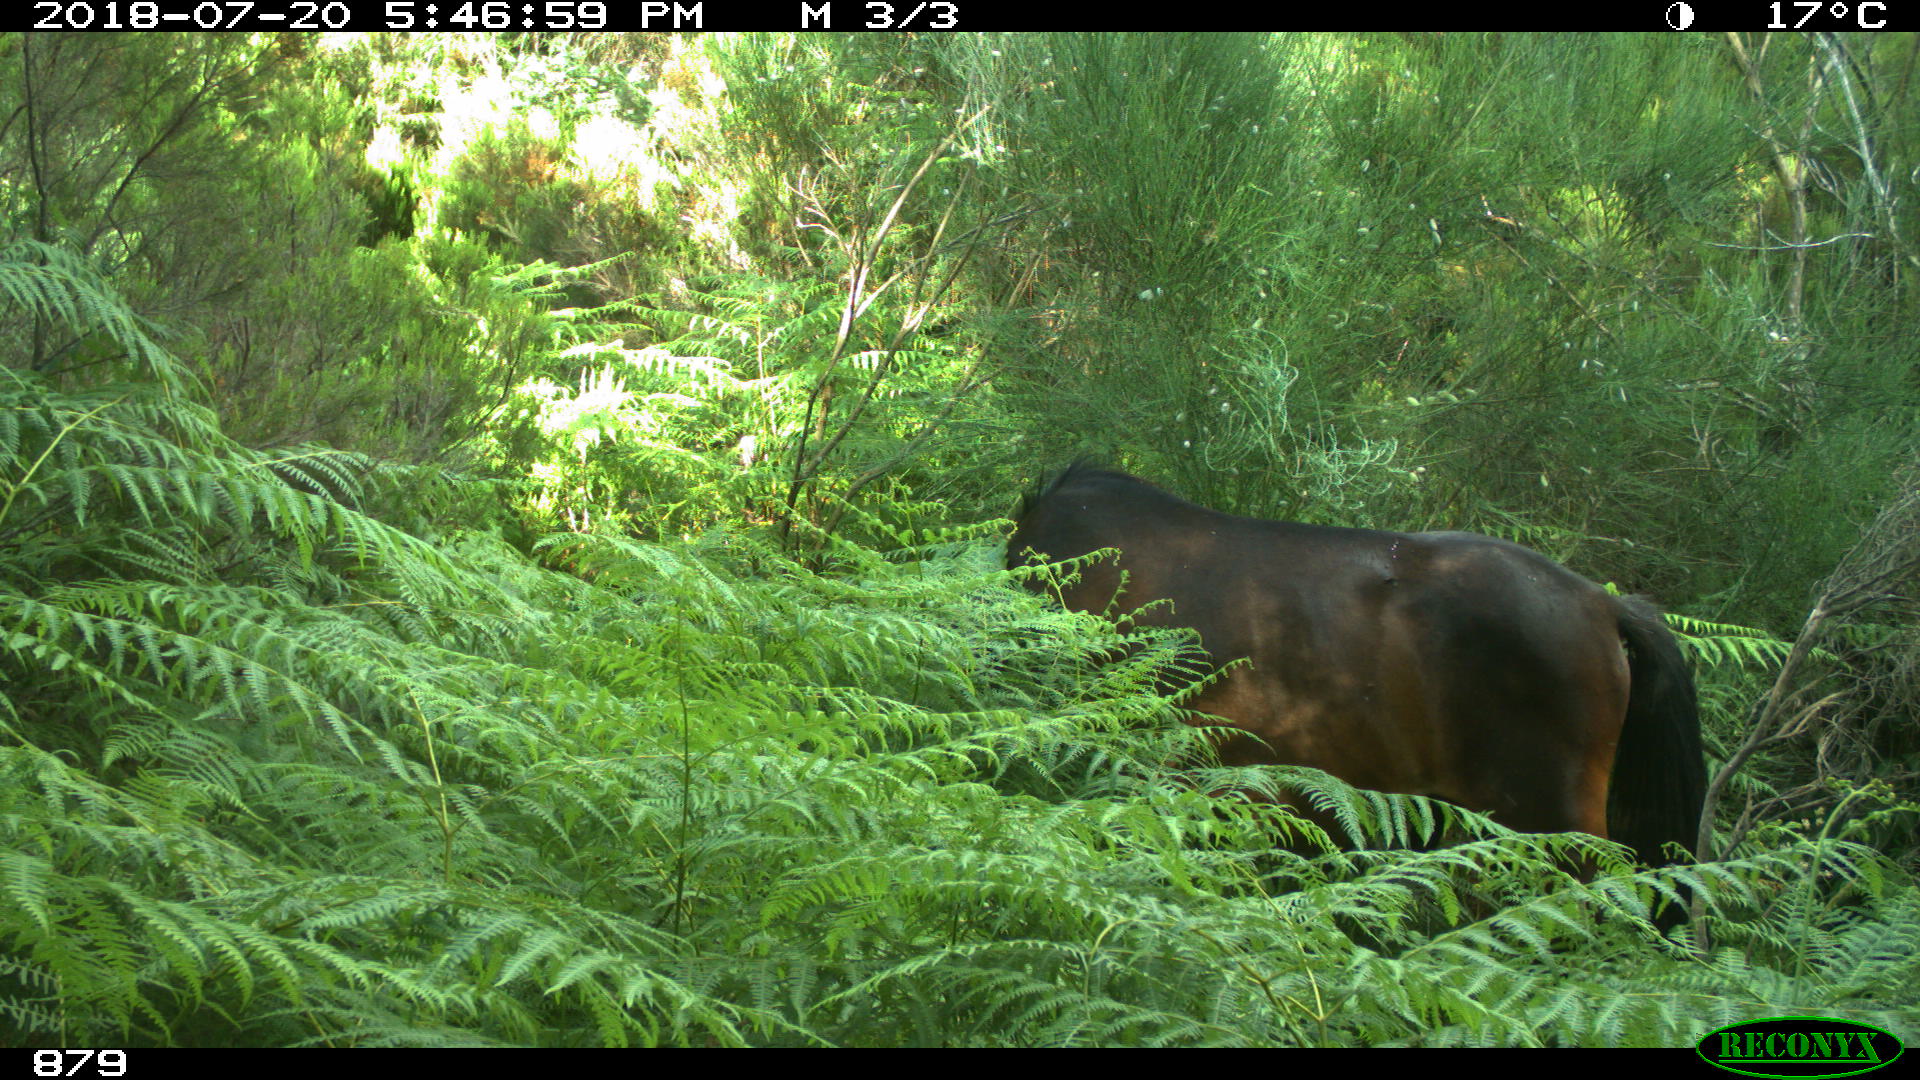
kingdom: Animalia
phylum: Chordata
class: Mammalia
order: Perissodactyla
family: Equidae
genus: Equus
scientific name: Equus caballus
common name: Horse
